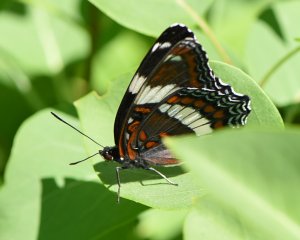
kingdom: Animalia
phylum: Arthropoda
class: Insecta
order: Lepidoptera
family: Nymphalidae
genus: Limenitis
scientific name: Limenitis arthemis
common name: Red-spotted Admiral
